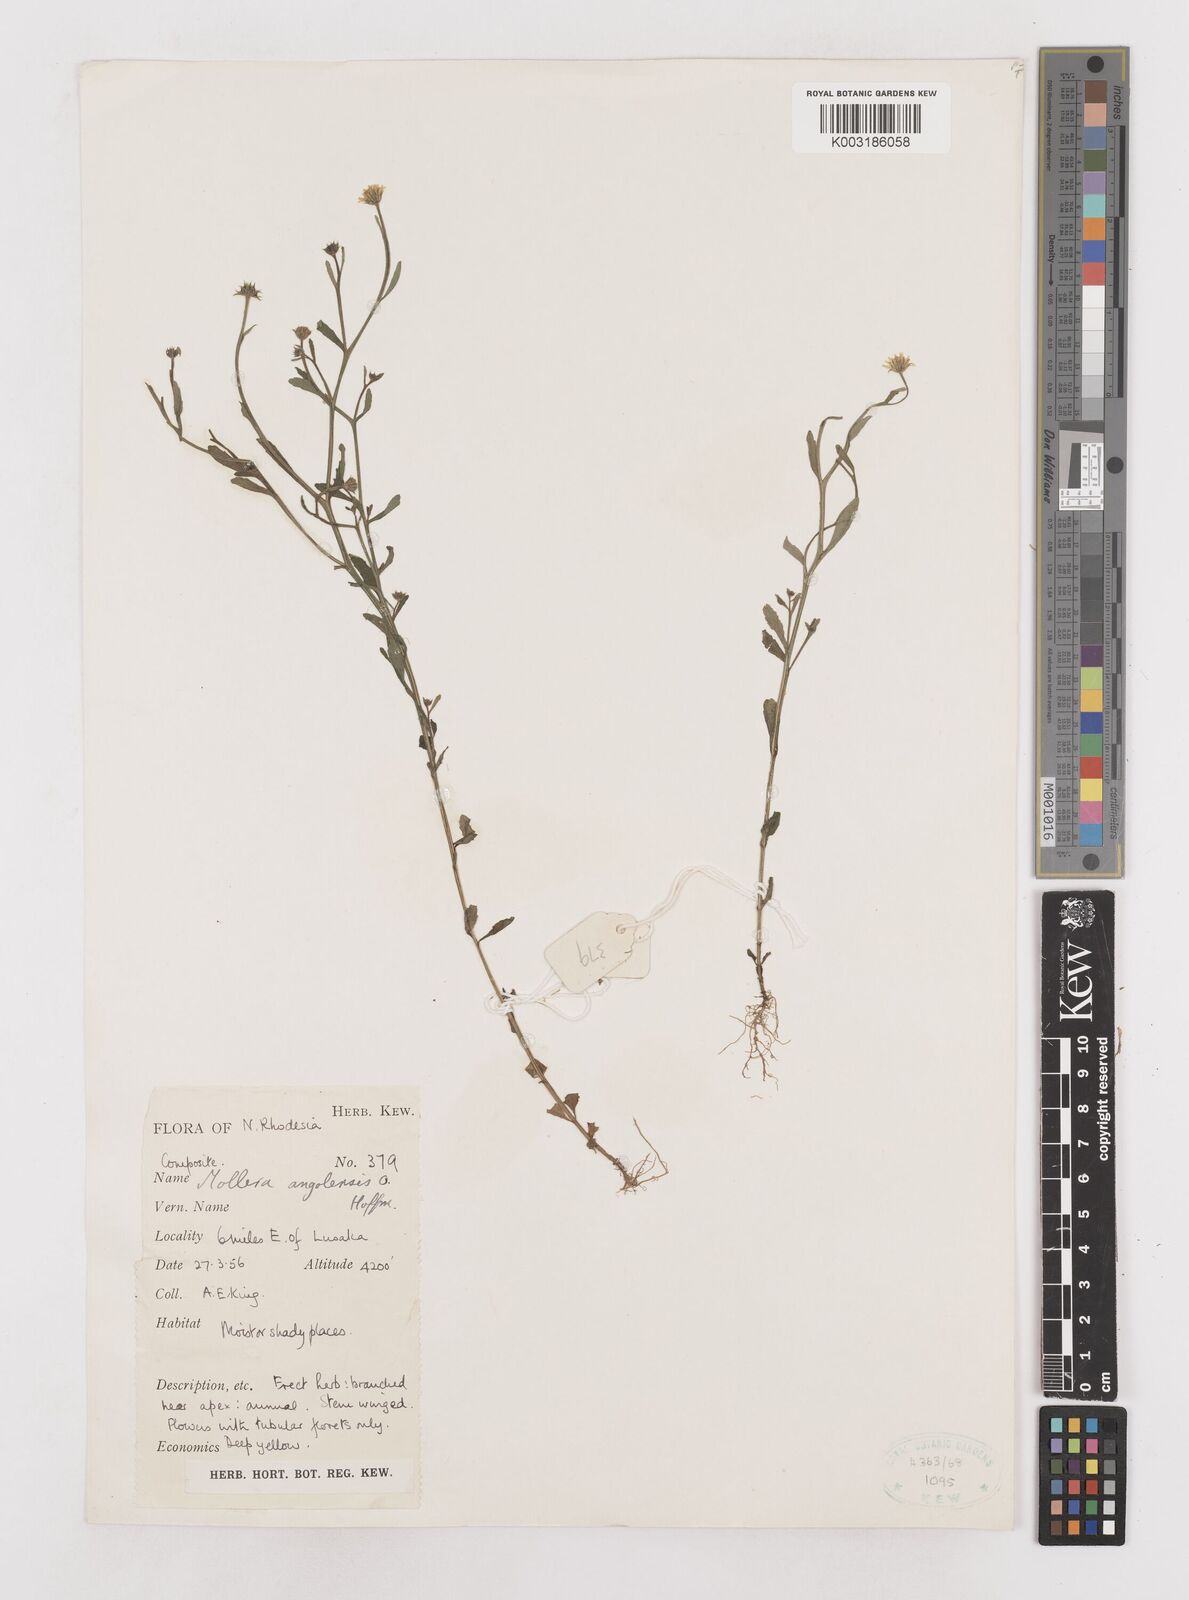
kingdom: Plantae
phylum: Tracheophyta
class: Magnoliopsida
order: Asterales
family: Asteraceae
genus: Calostephane
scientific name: Calostephane angolensis
